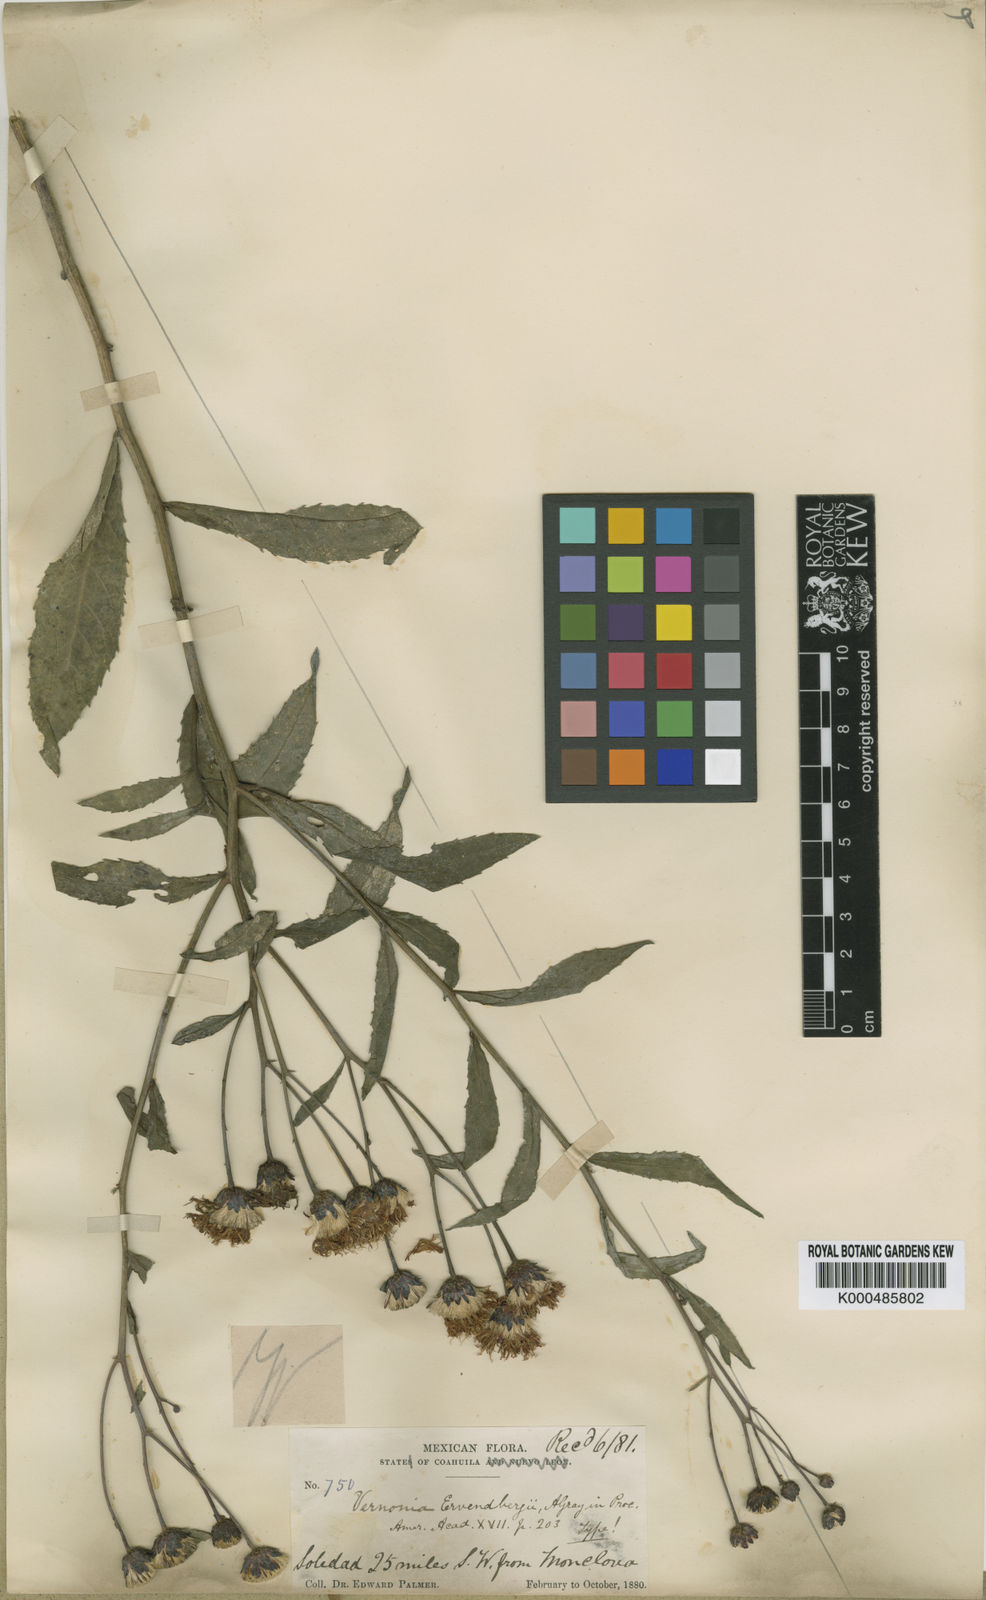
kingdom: Plantae
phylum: Tracheophyta
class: Magnoliopsida
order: Asterales
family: Asteraceae
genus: Vernonia
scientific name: Vernonia greggii
